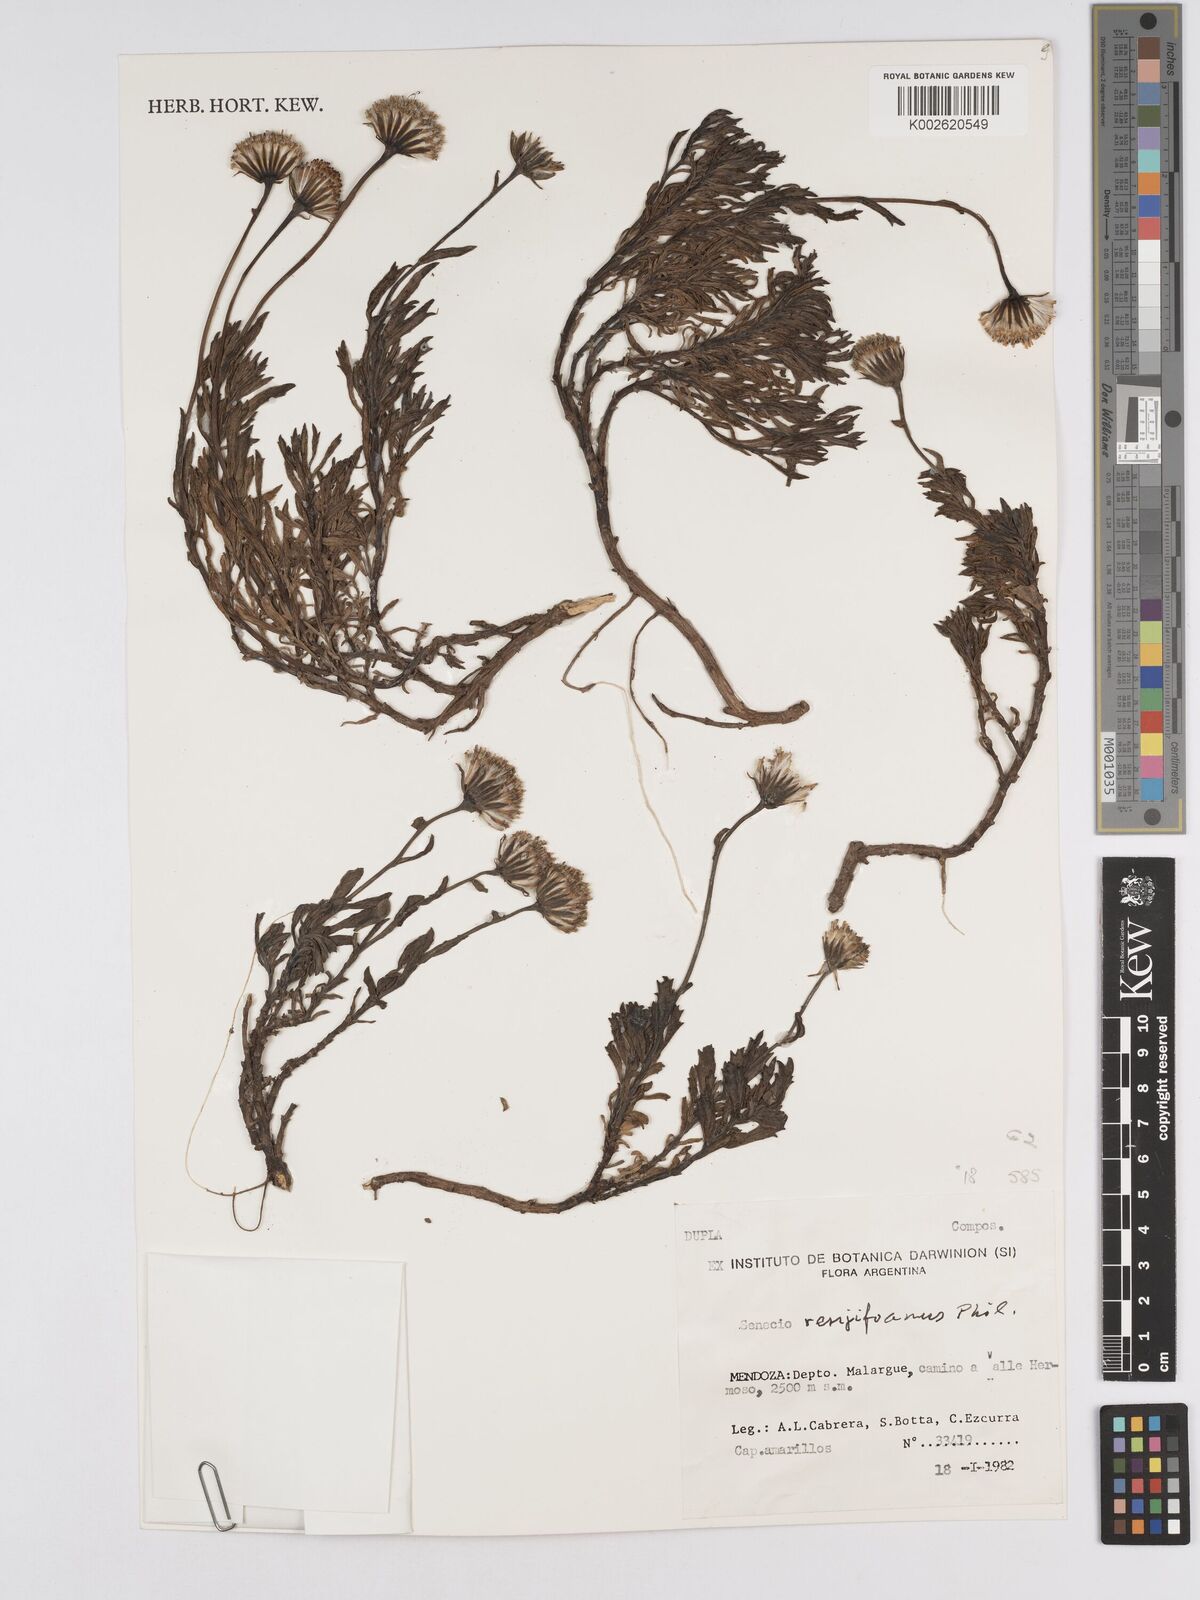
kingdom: Plantae
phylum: Tracheophyta
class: Magnoliopsida
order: Asterales
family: Asteraceae
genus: Senecio
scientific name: Senecio renjifoanus
